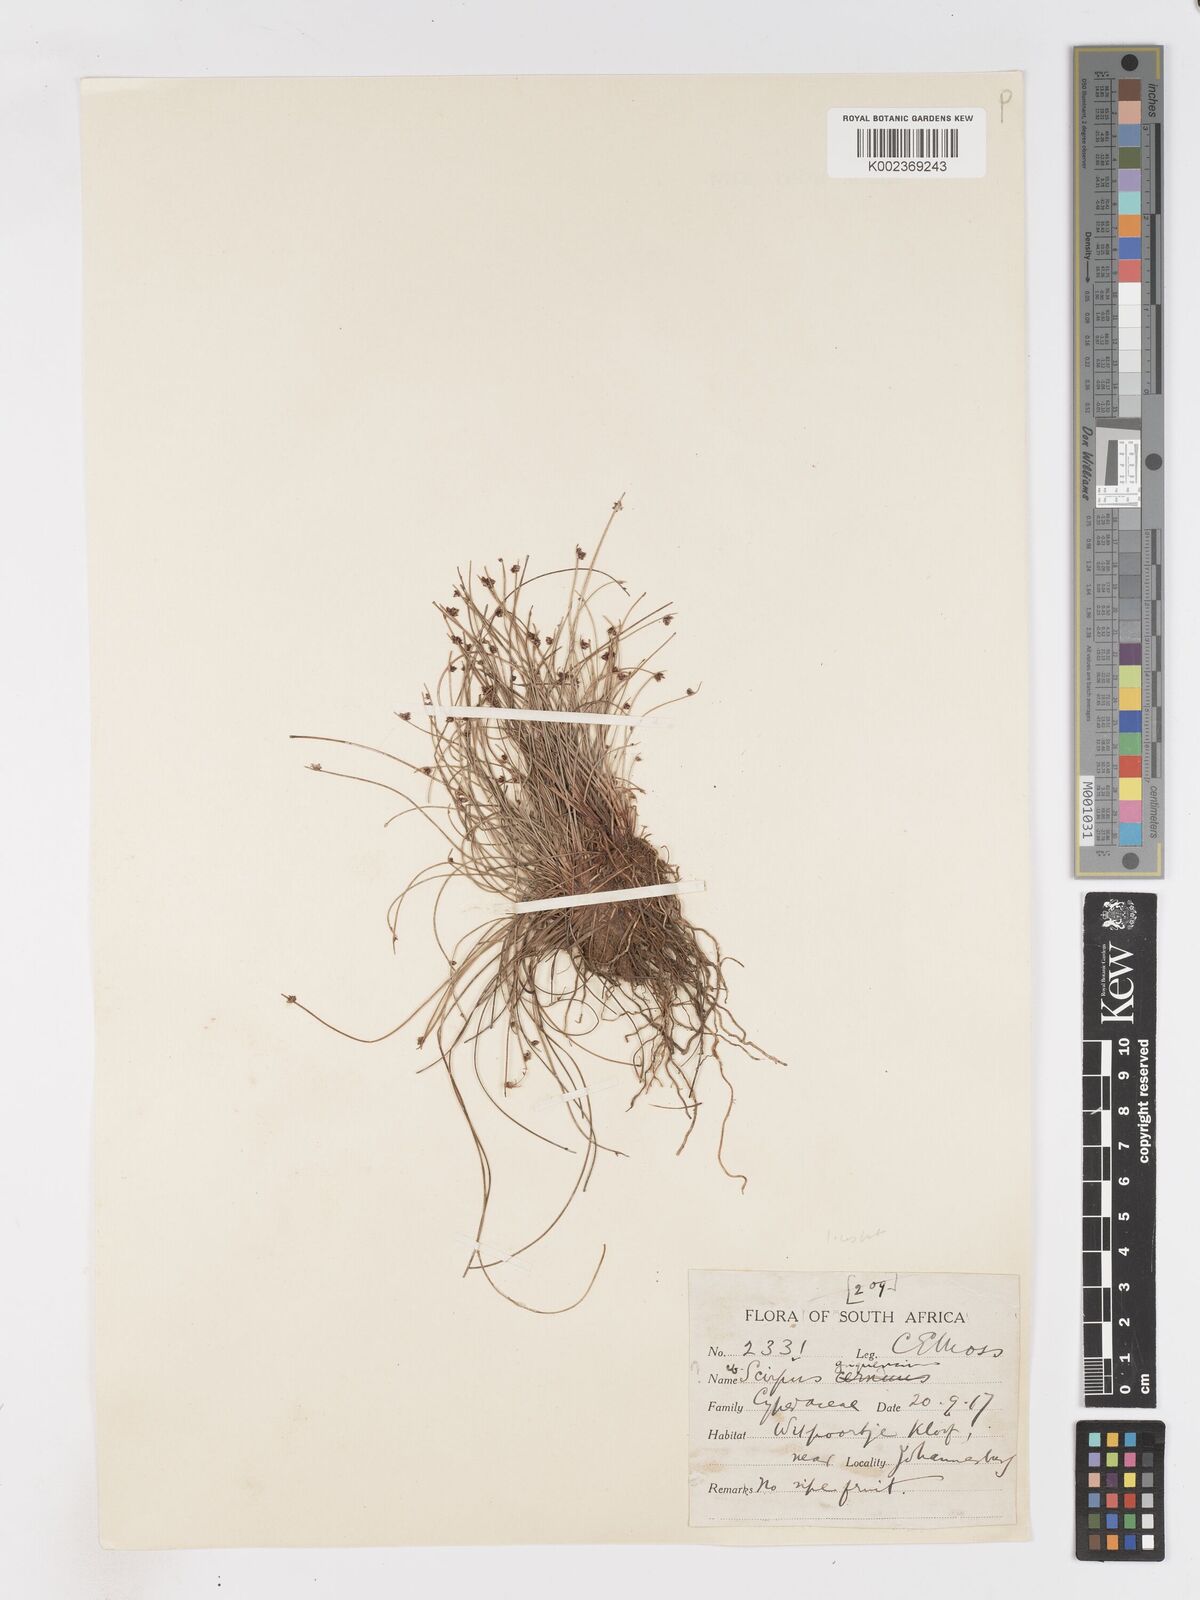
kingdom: Plantae
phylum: Tracheophyta
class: Liliopsida
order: Poales
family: Cyperaceae
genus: Isolepis
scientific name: Isolepis costata
